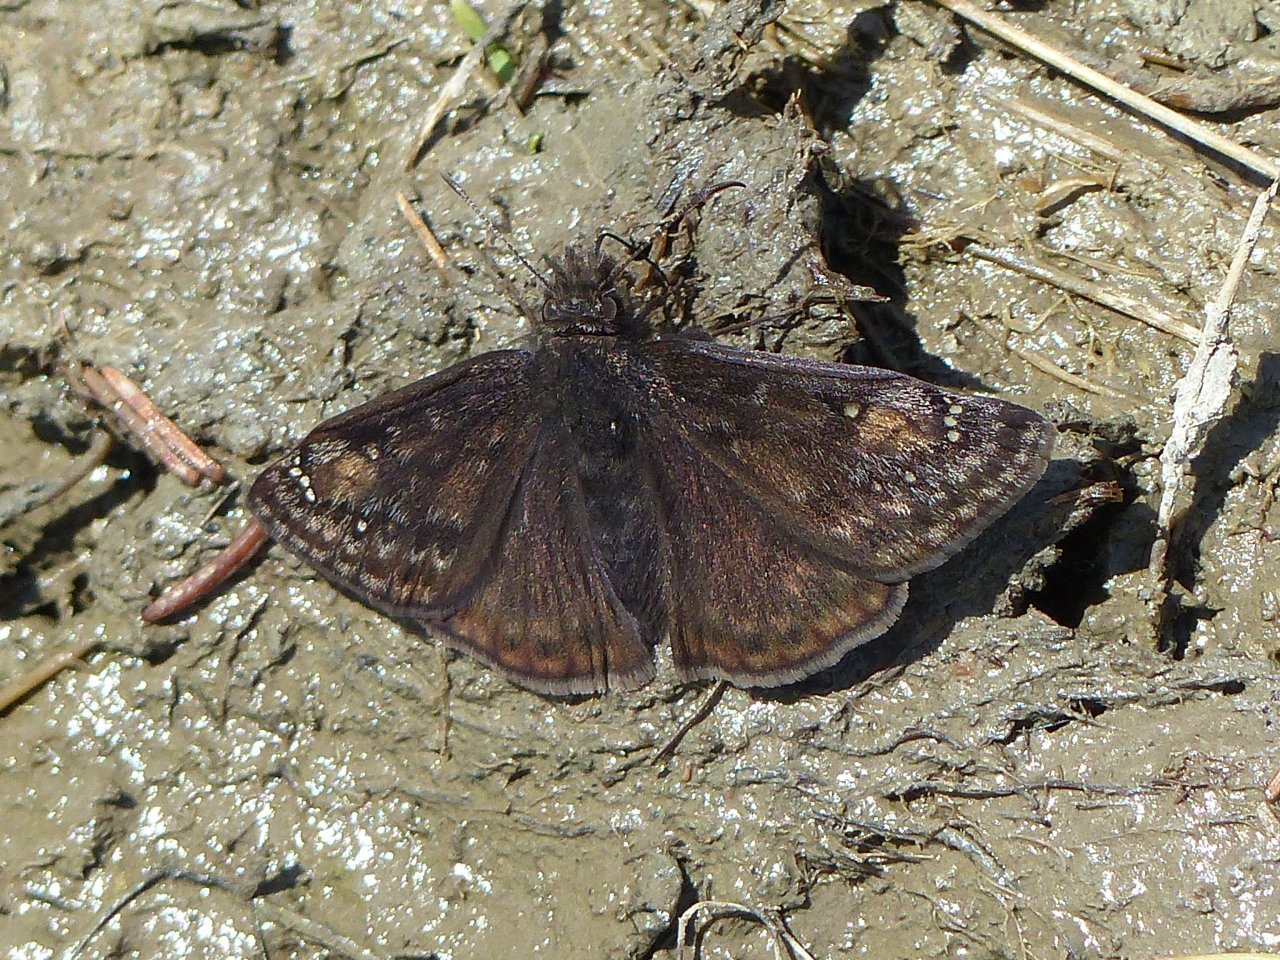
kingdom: Animalia
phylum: Arthropoda
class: Insecta
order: Lepidoptera
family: Hesperiidae
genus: Gesta
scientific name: Gesta
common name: Juvenal's Duskywing
